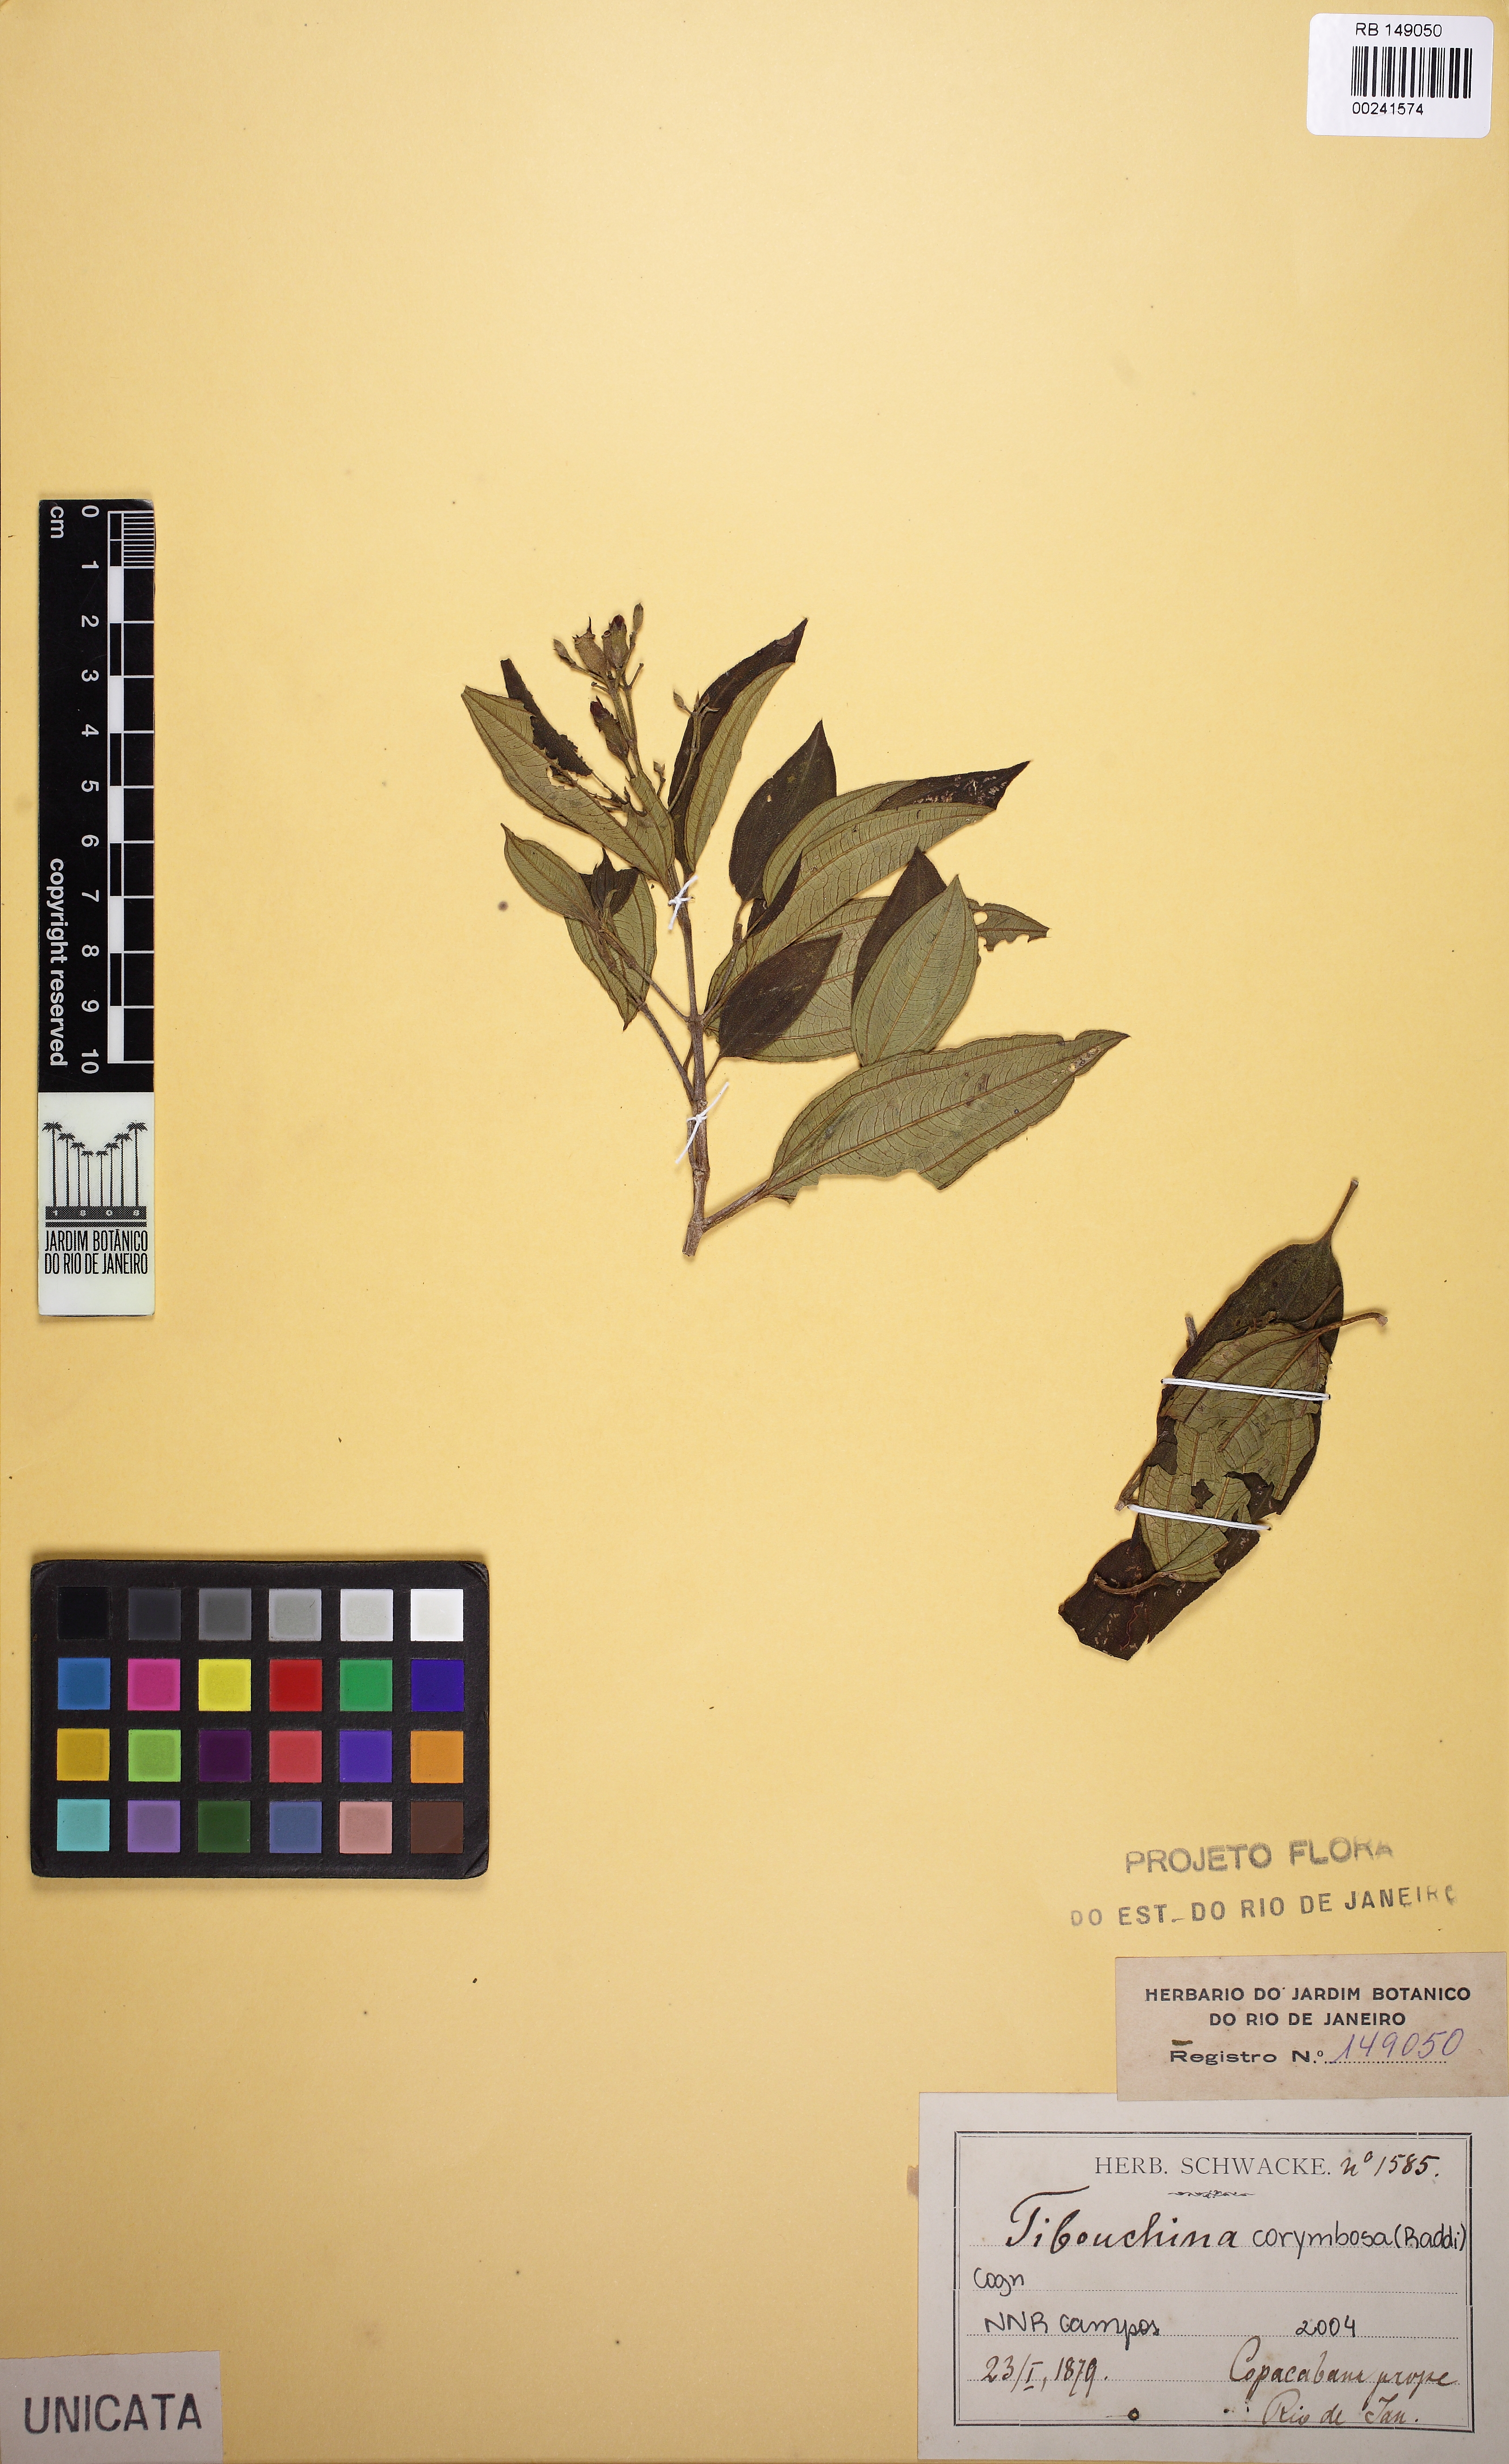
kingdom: Plantae
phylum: Tracheophyta
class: Magnoliopsida
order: Myrtales
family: Melastomataceae
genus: Pleroma
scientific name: Pleroma vimineum
